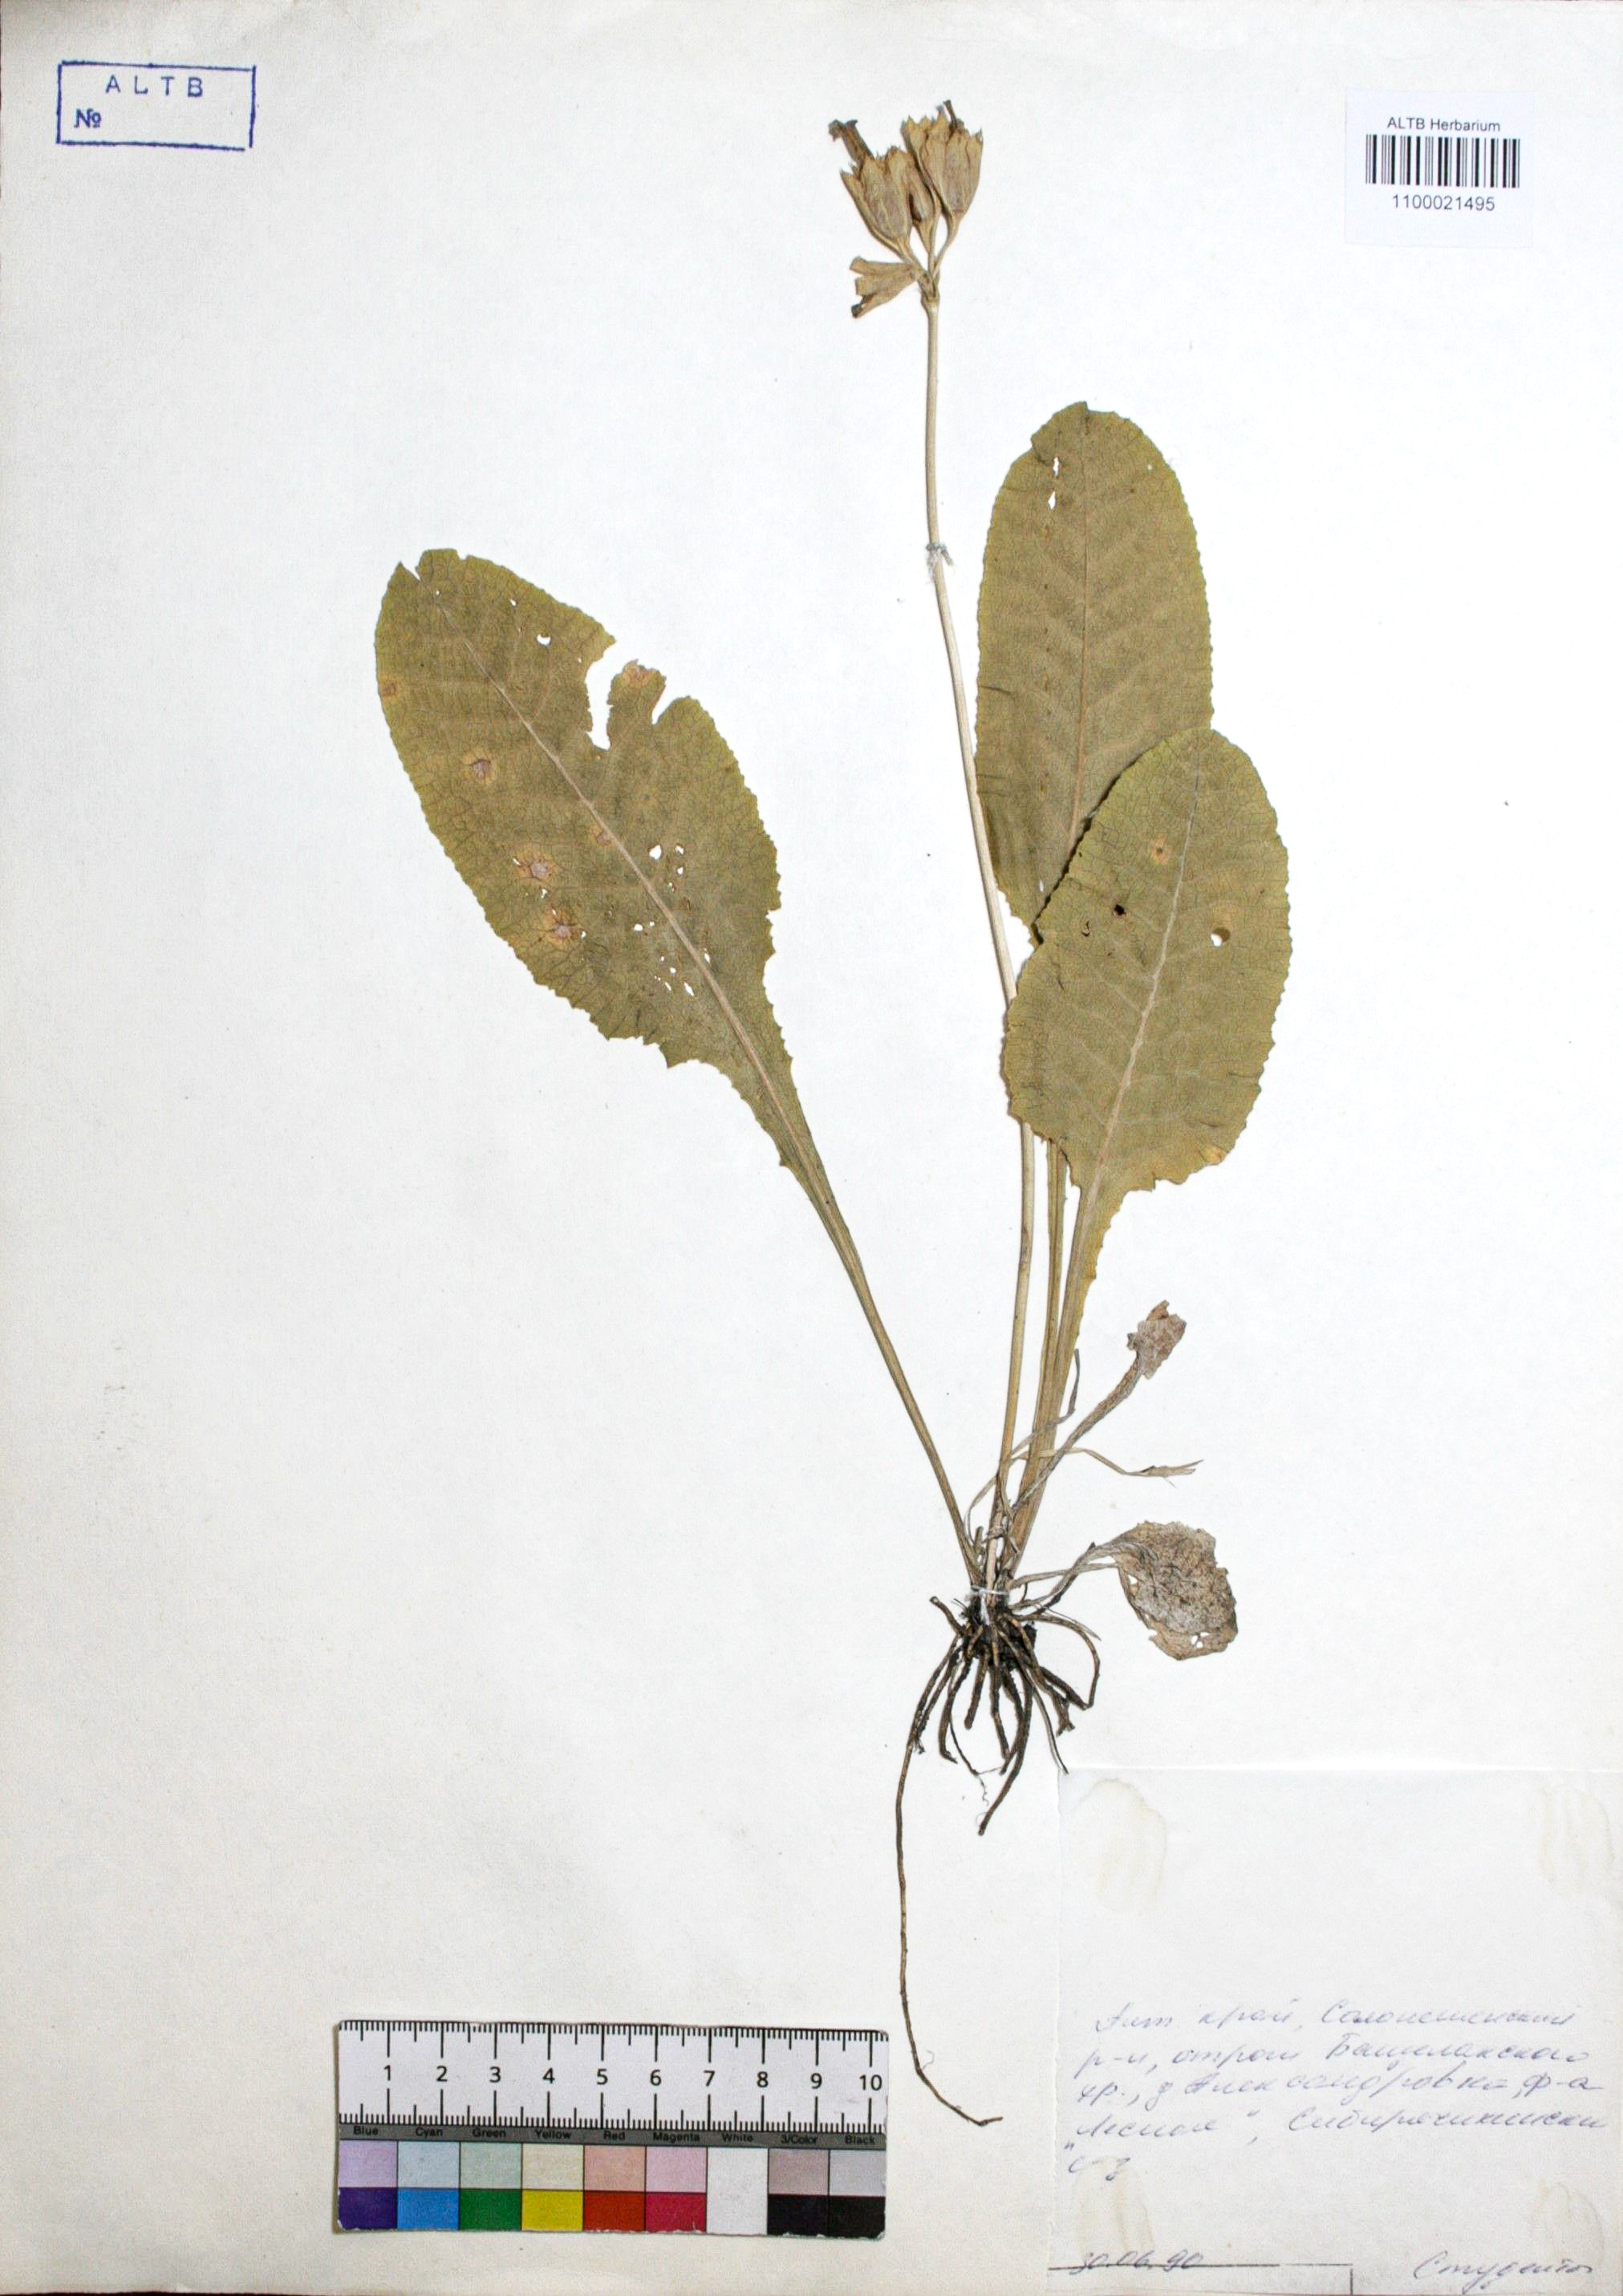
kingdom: Plantae
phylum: Tracheophyta
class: Magnoliopsida
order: Ericales
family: Primulaceae
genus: Primula
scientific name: Primula veris
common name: Cowslip
